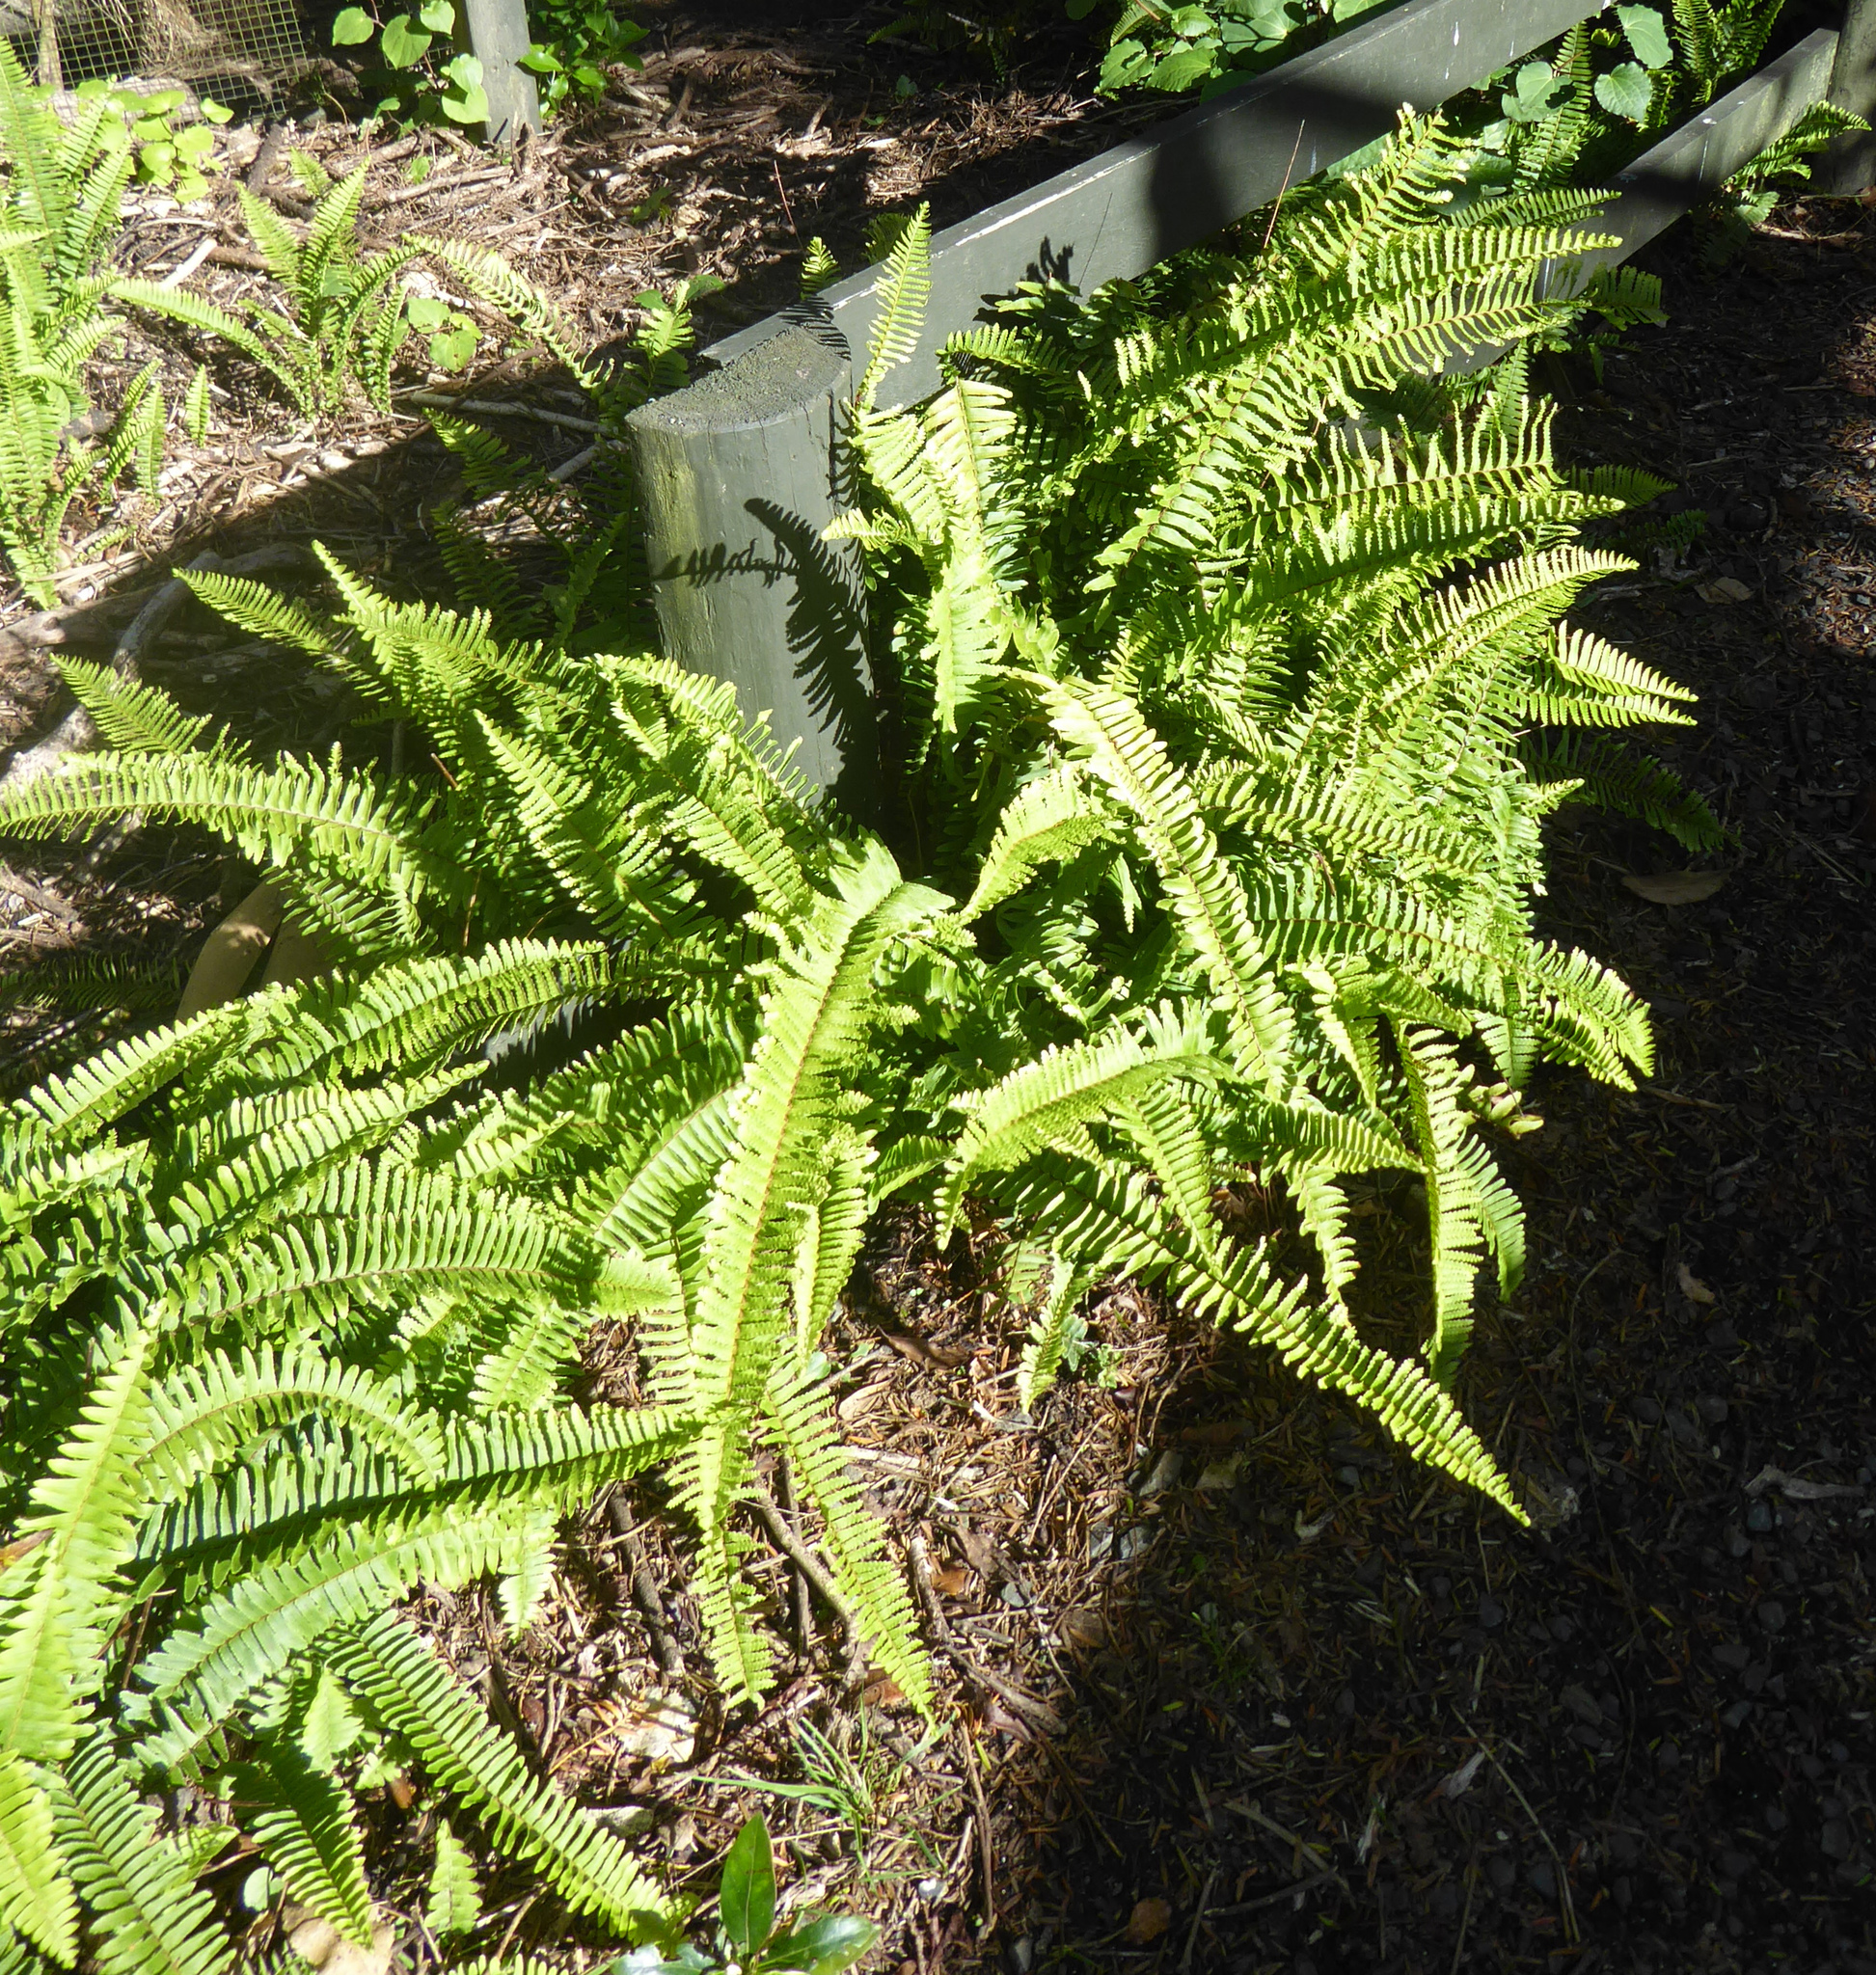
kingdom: Plantae
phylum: Tracheophyta
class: Polypodiopsida
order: Polypodiales
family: Nephrolepidaceae
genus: Nephrolepis
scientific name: Nephrolepis cordifolia
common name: Narrow swordfern
